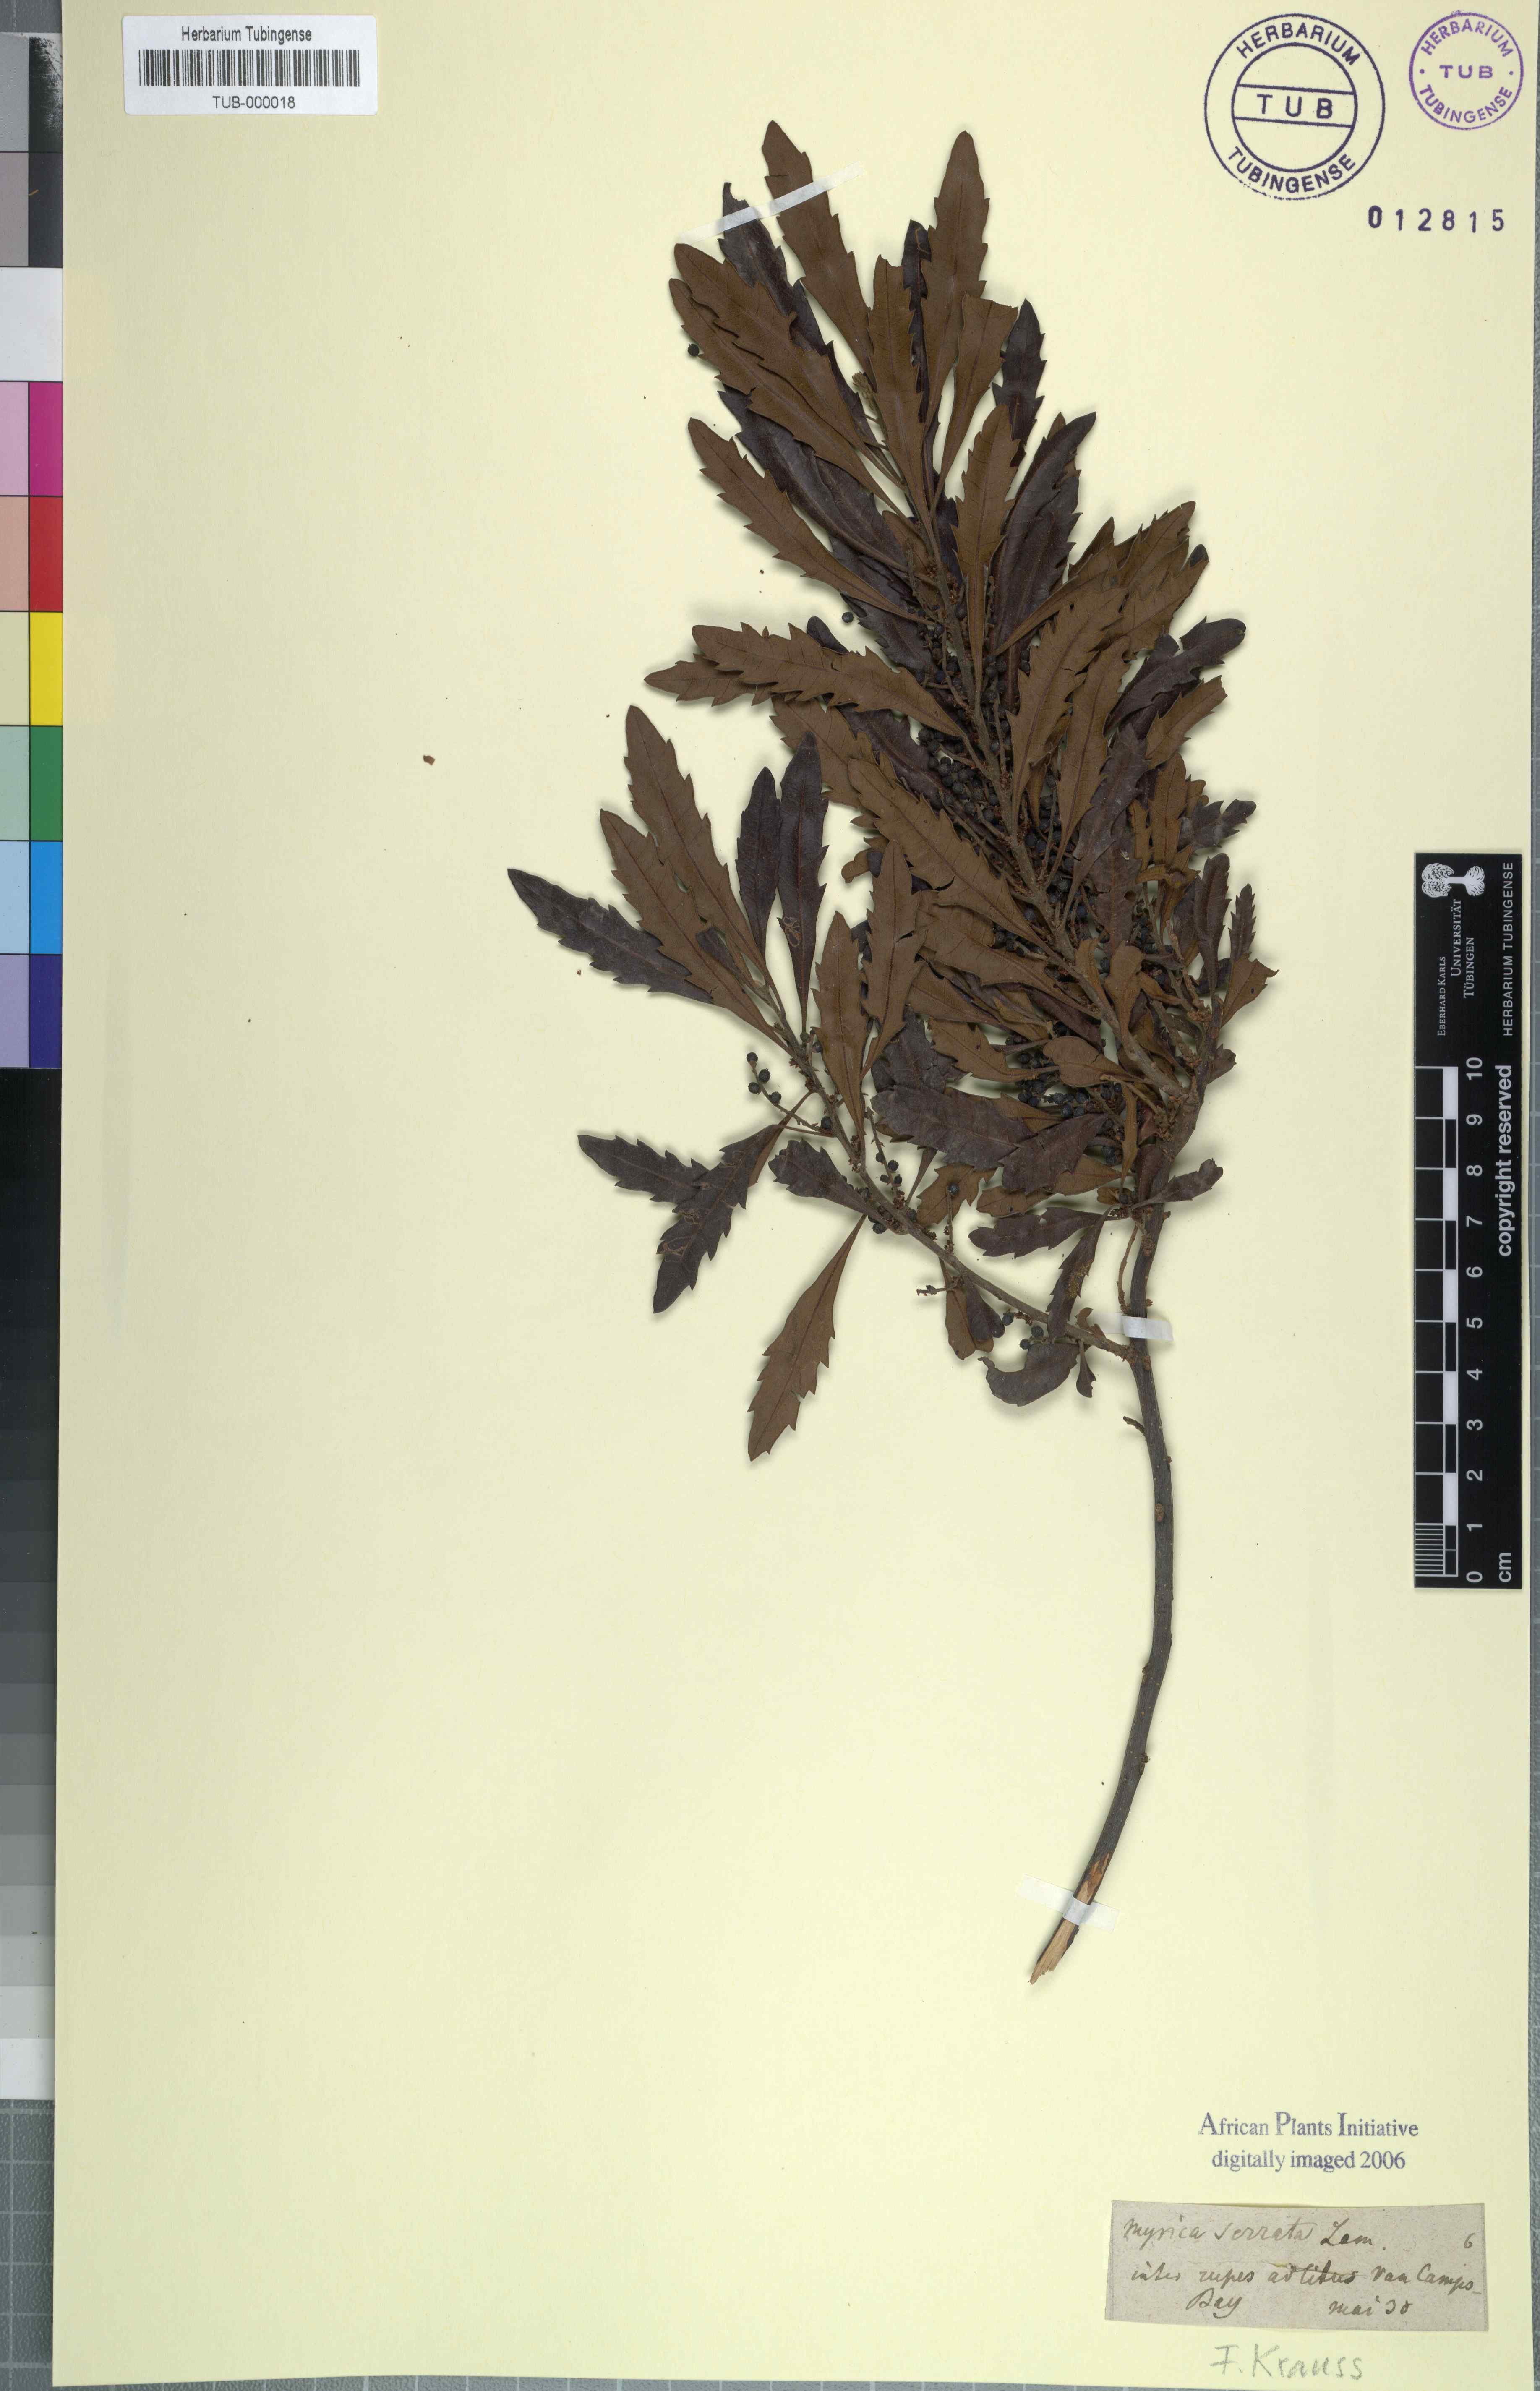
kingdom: Plantae
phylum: Tracheophyta
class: Magnoliopsida
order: Fagales
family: Myricaceae
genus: Morella
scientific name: Morella serrata
